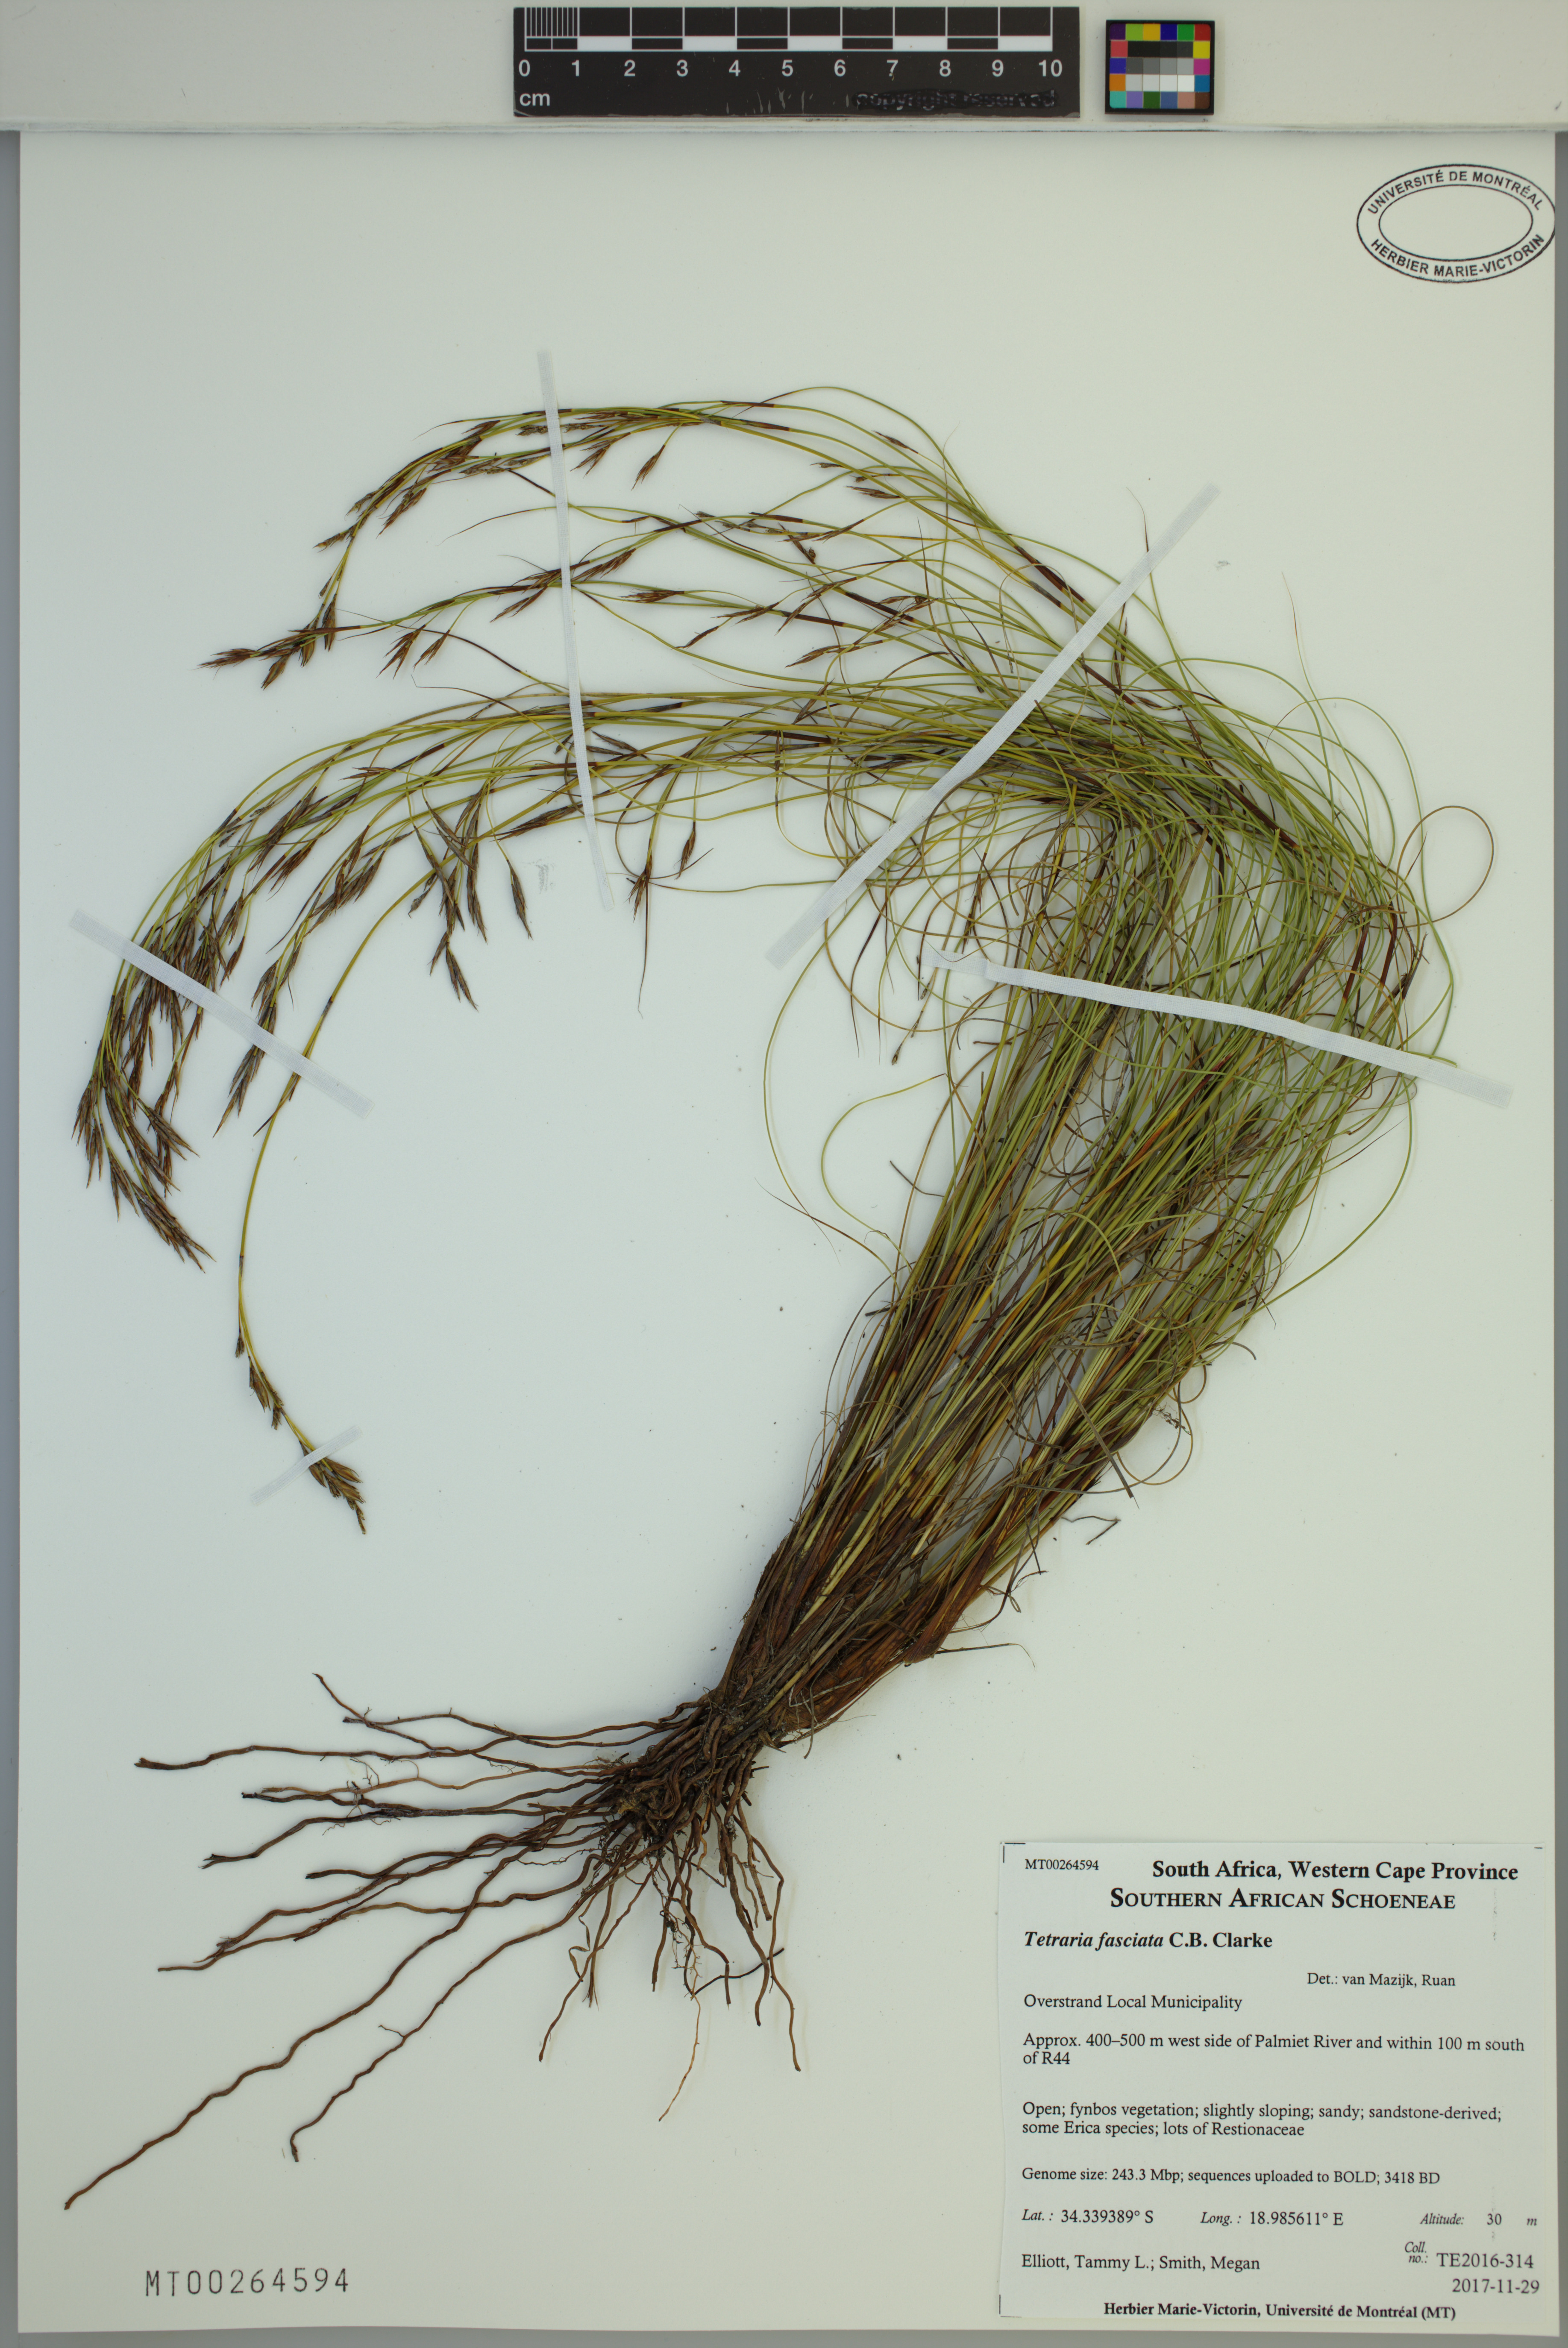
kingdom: Plantae
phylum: Tracheophyta
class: Liliopsida
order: Poales
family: Cyperaceae
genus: Tetraria
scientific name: Tetraria fasciata
